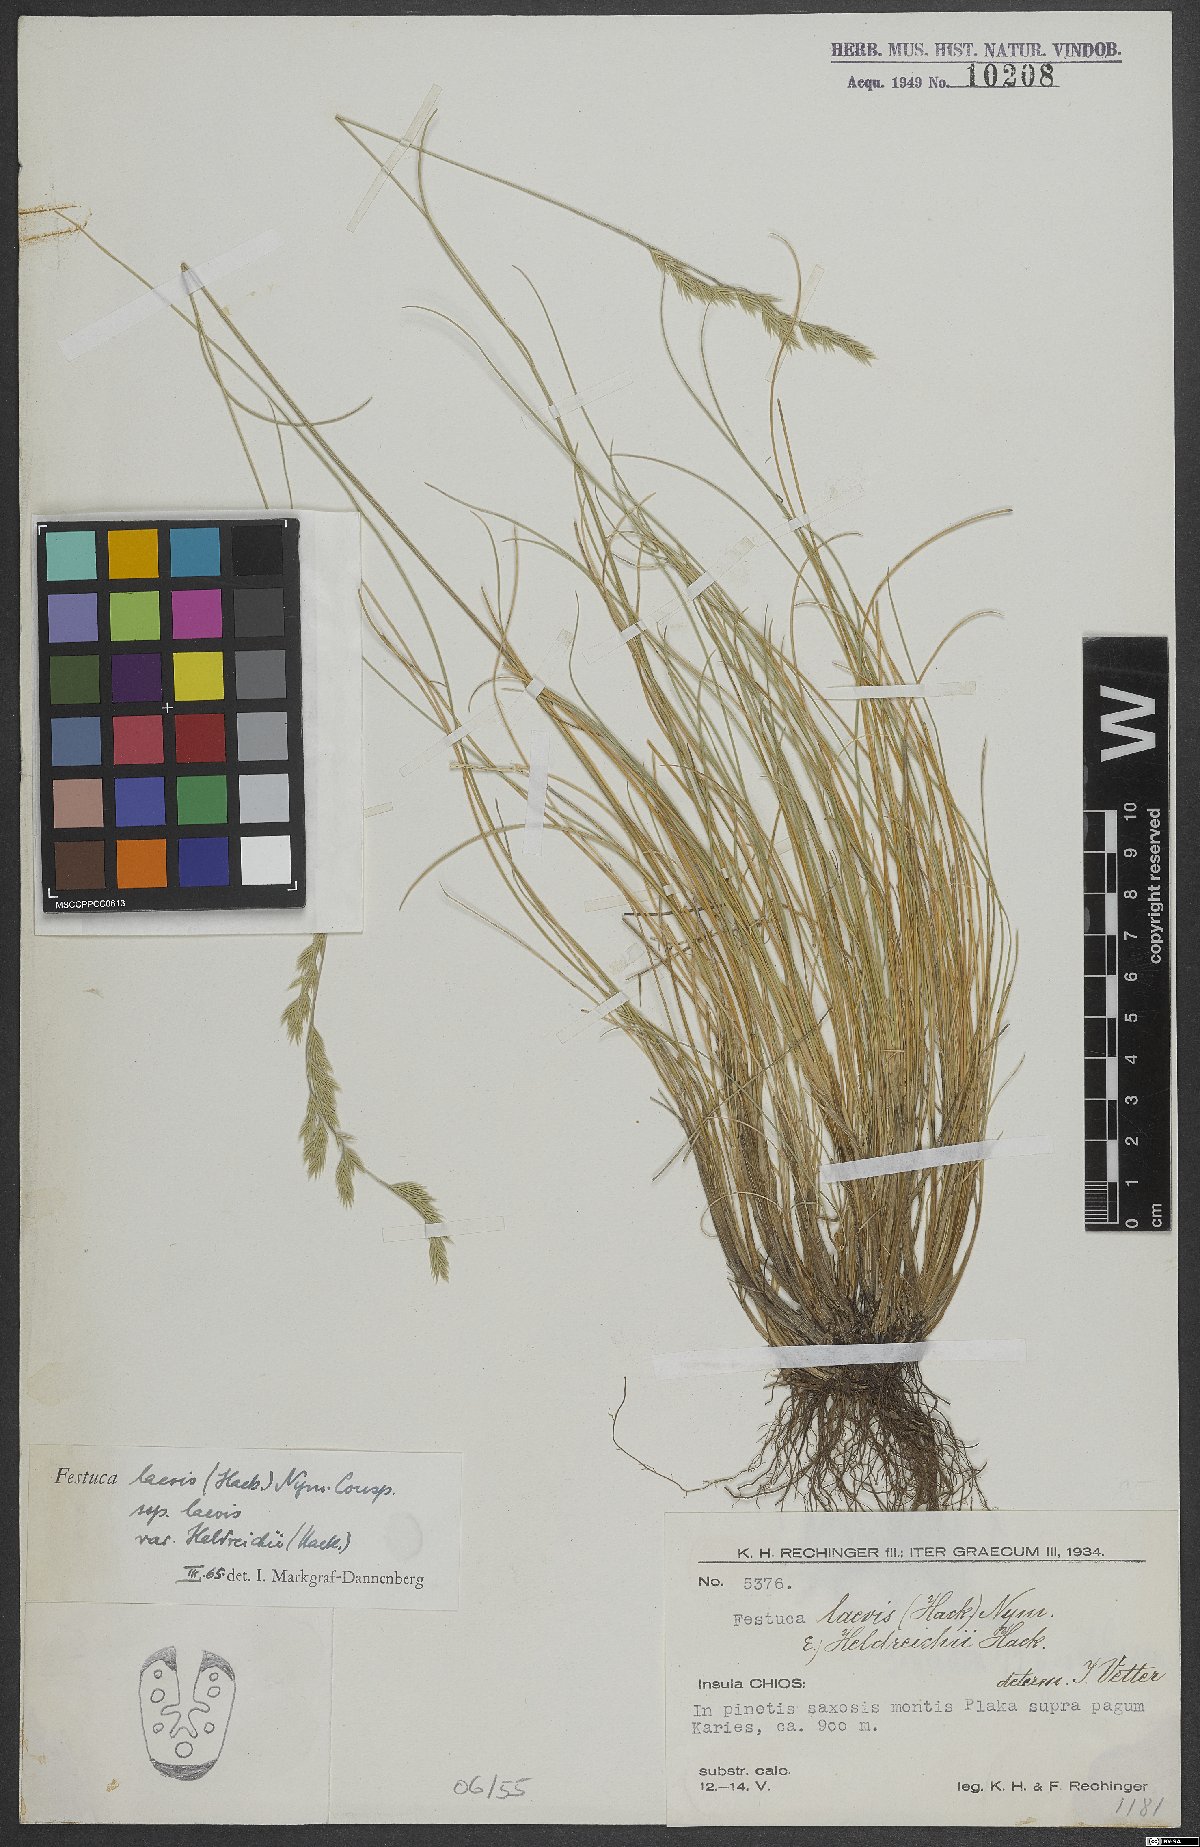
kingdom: Plantae
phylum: Tracheophyta
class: Liliopsida
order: Poales
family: Poaceae
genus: Festuca
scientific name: Festuca laevis
